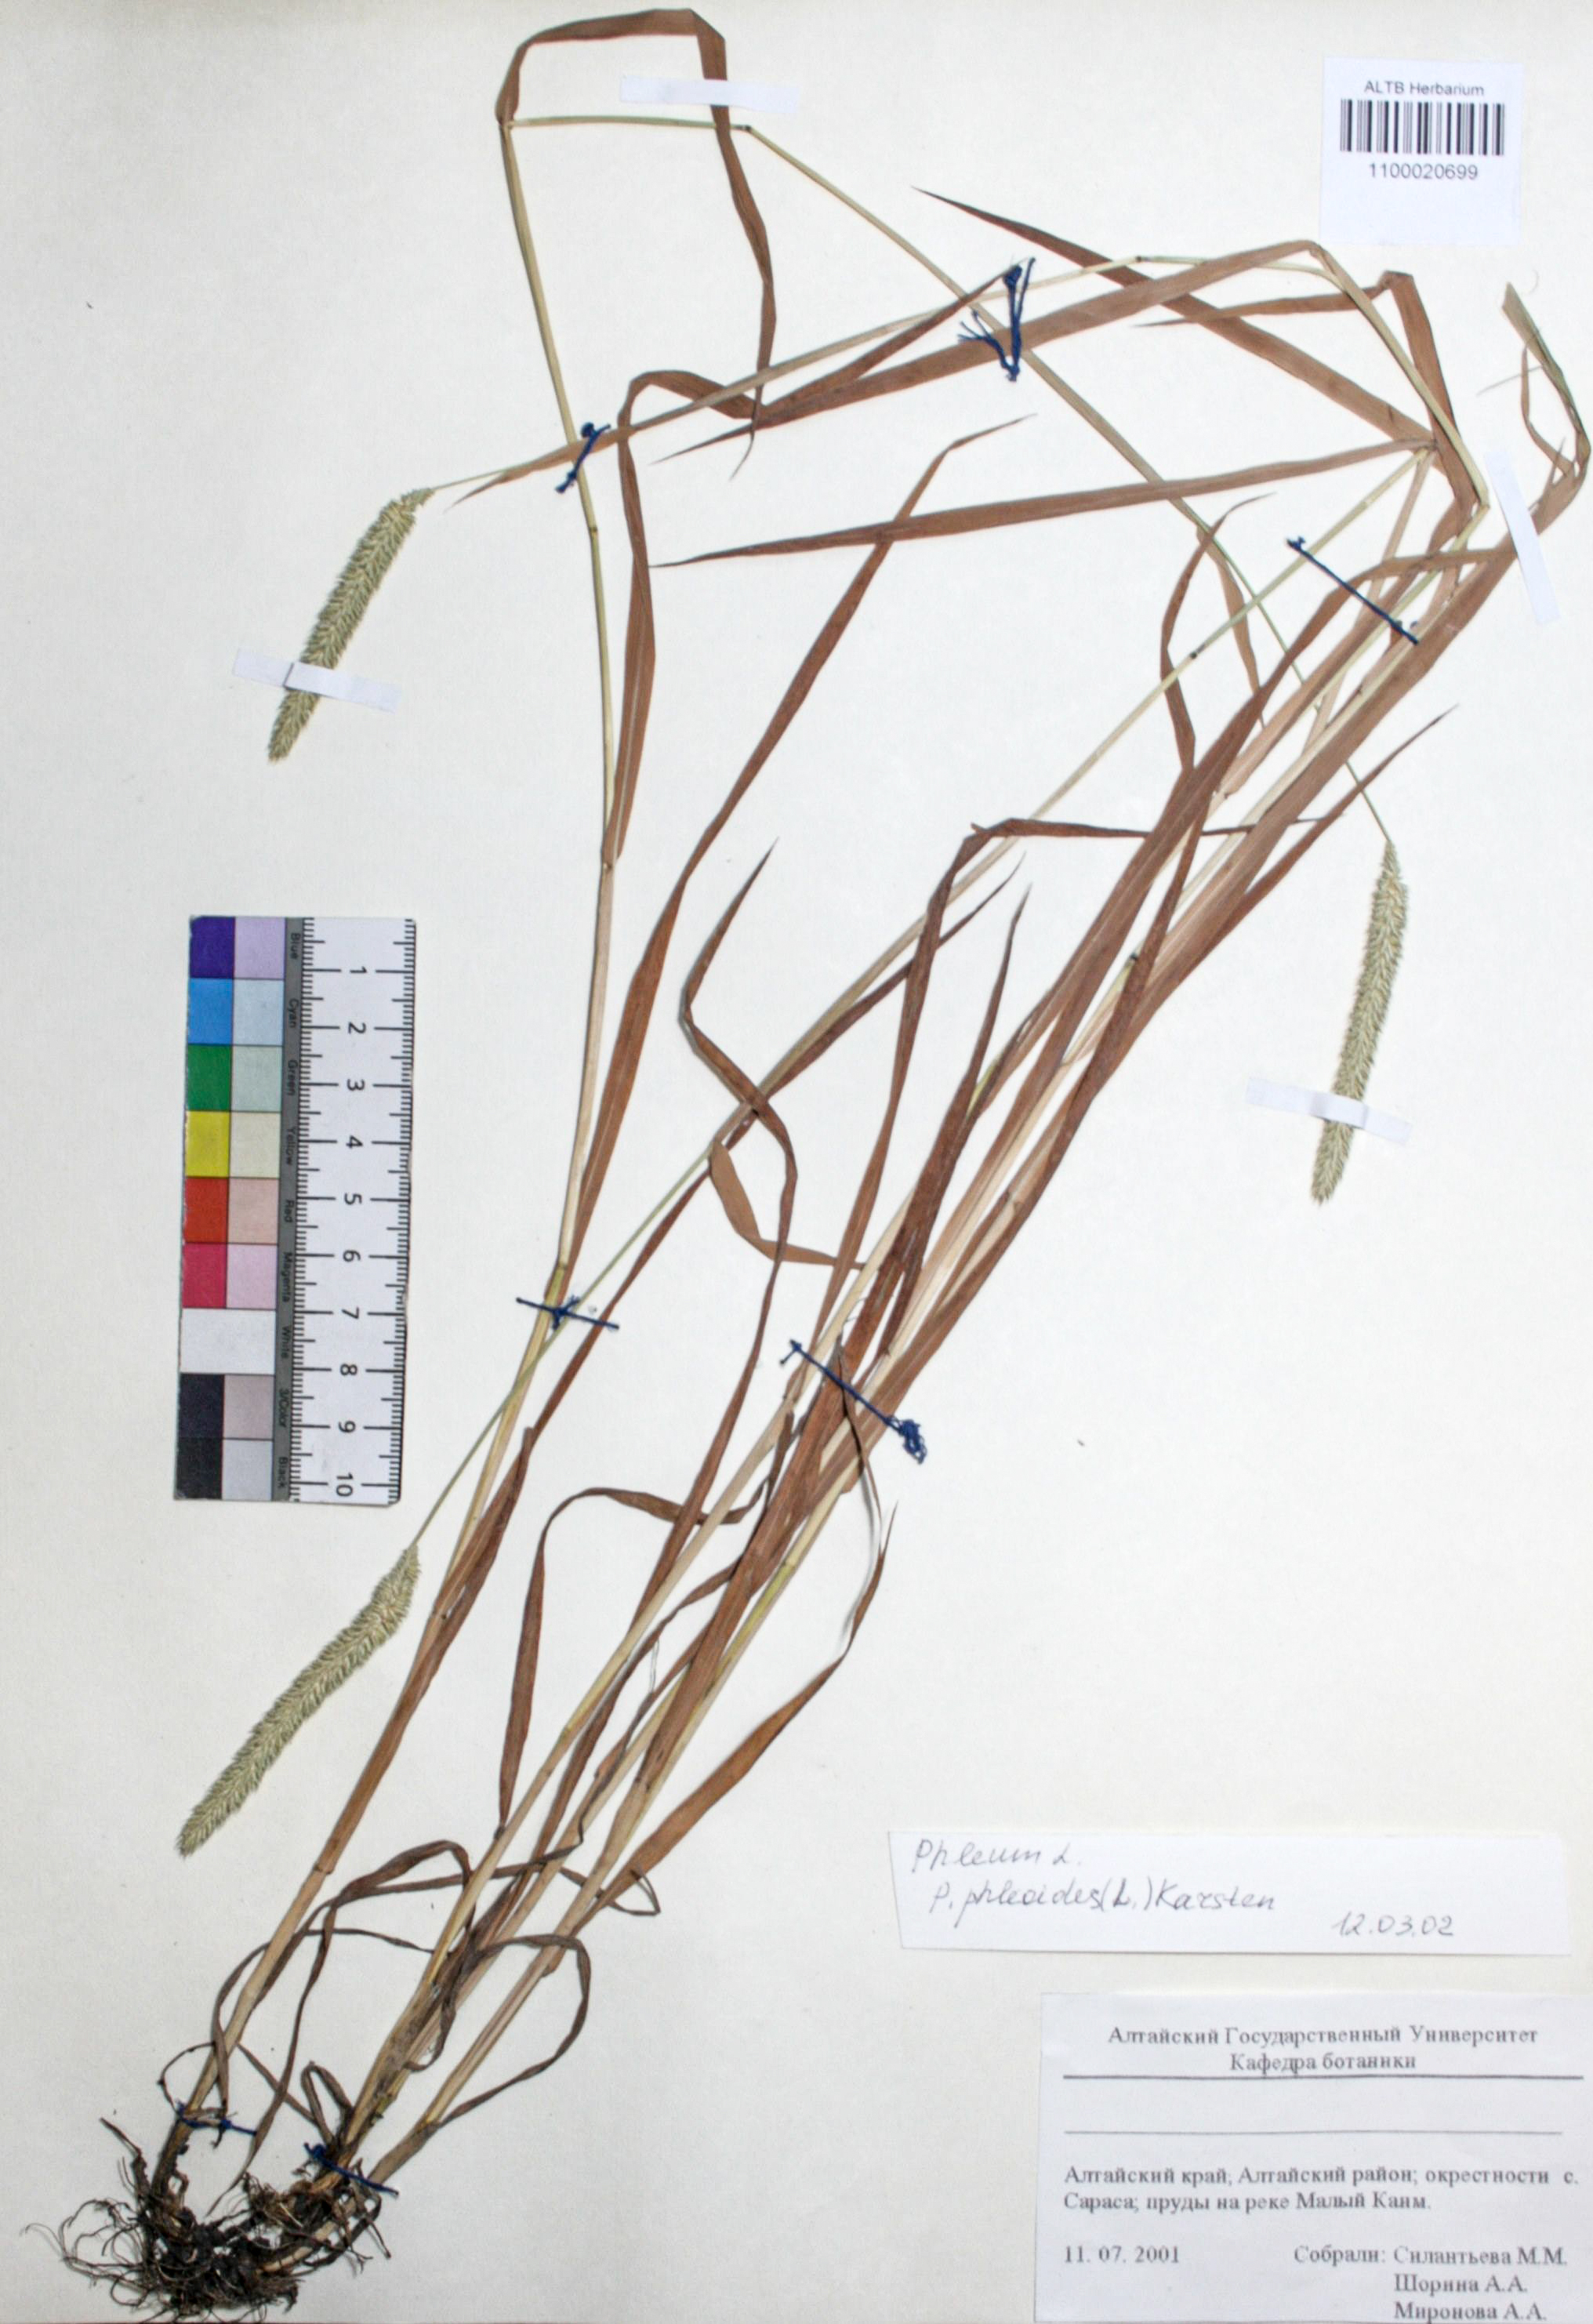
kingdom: Plantae
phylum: Tracheophyta
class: Liliopsida
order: Poales
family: Poaceae
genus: Phleum
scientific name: Phleum phleoides
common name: Purple-stem cat's-tail
